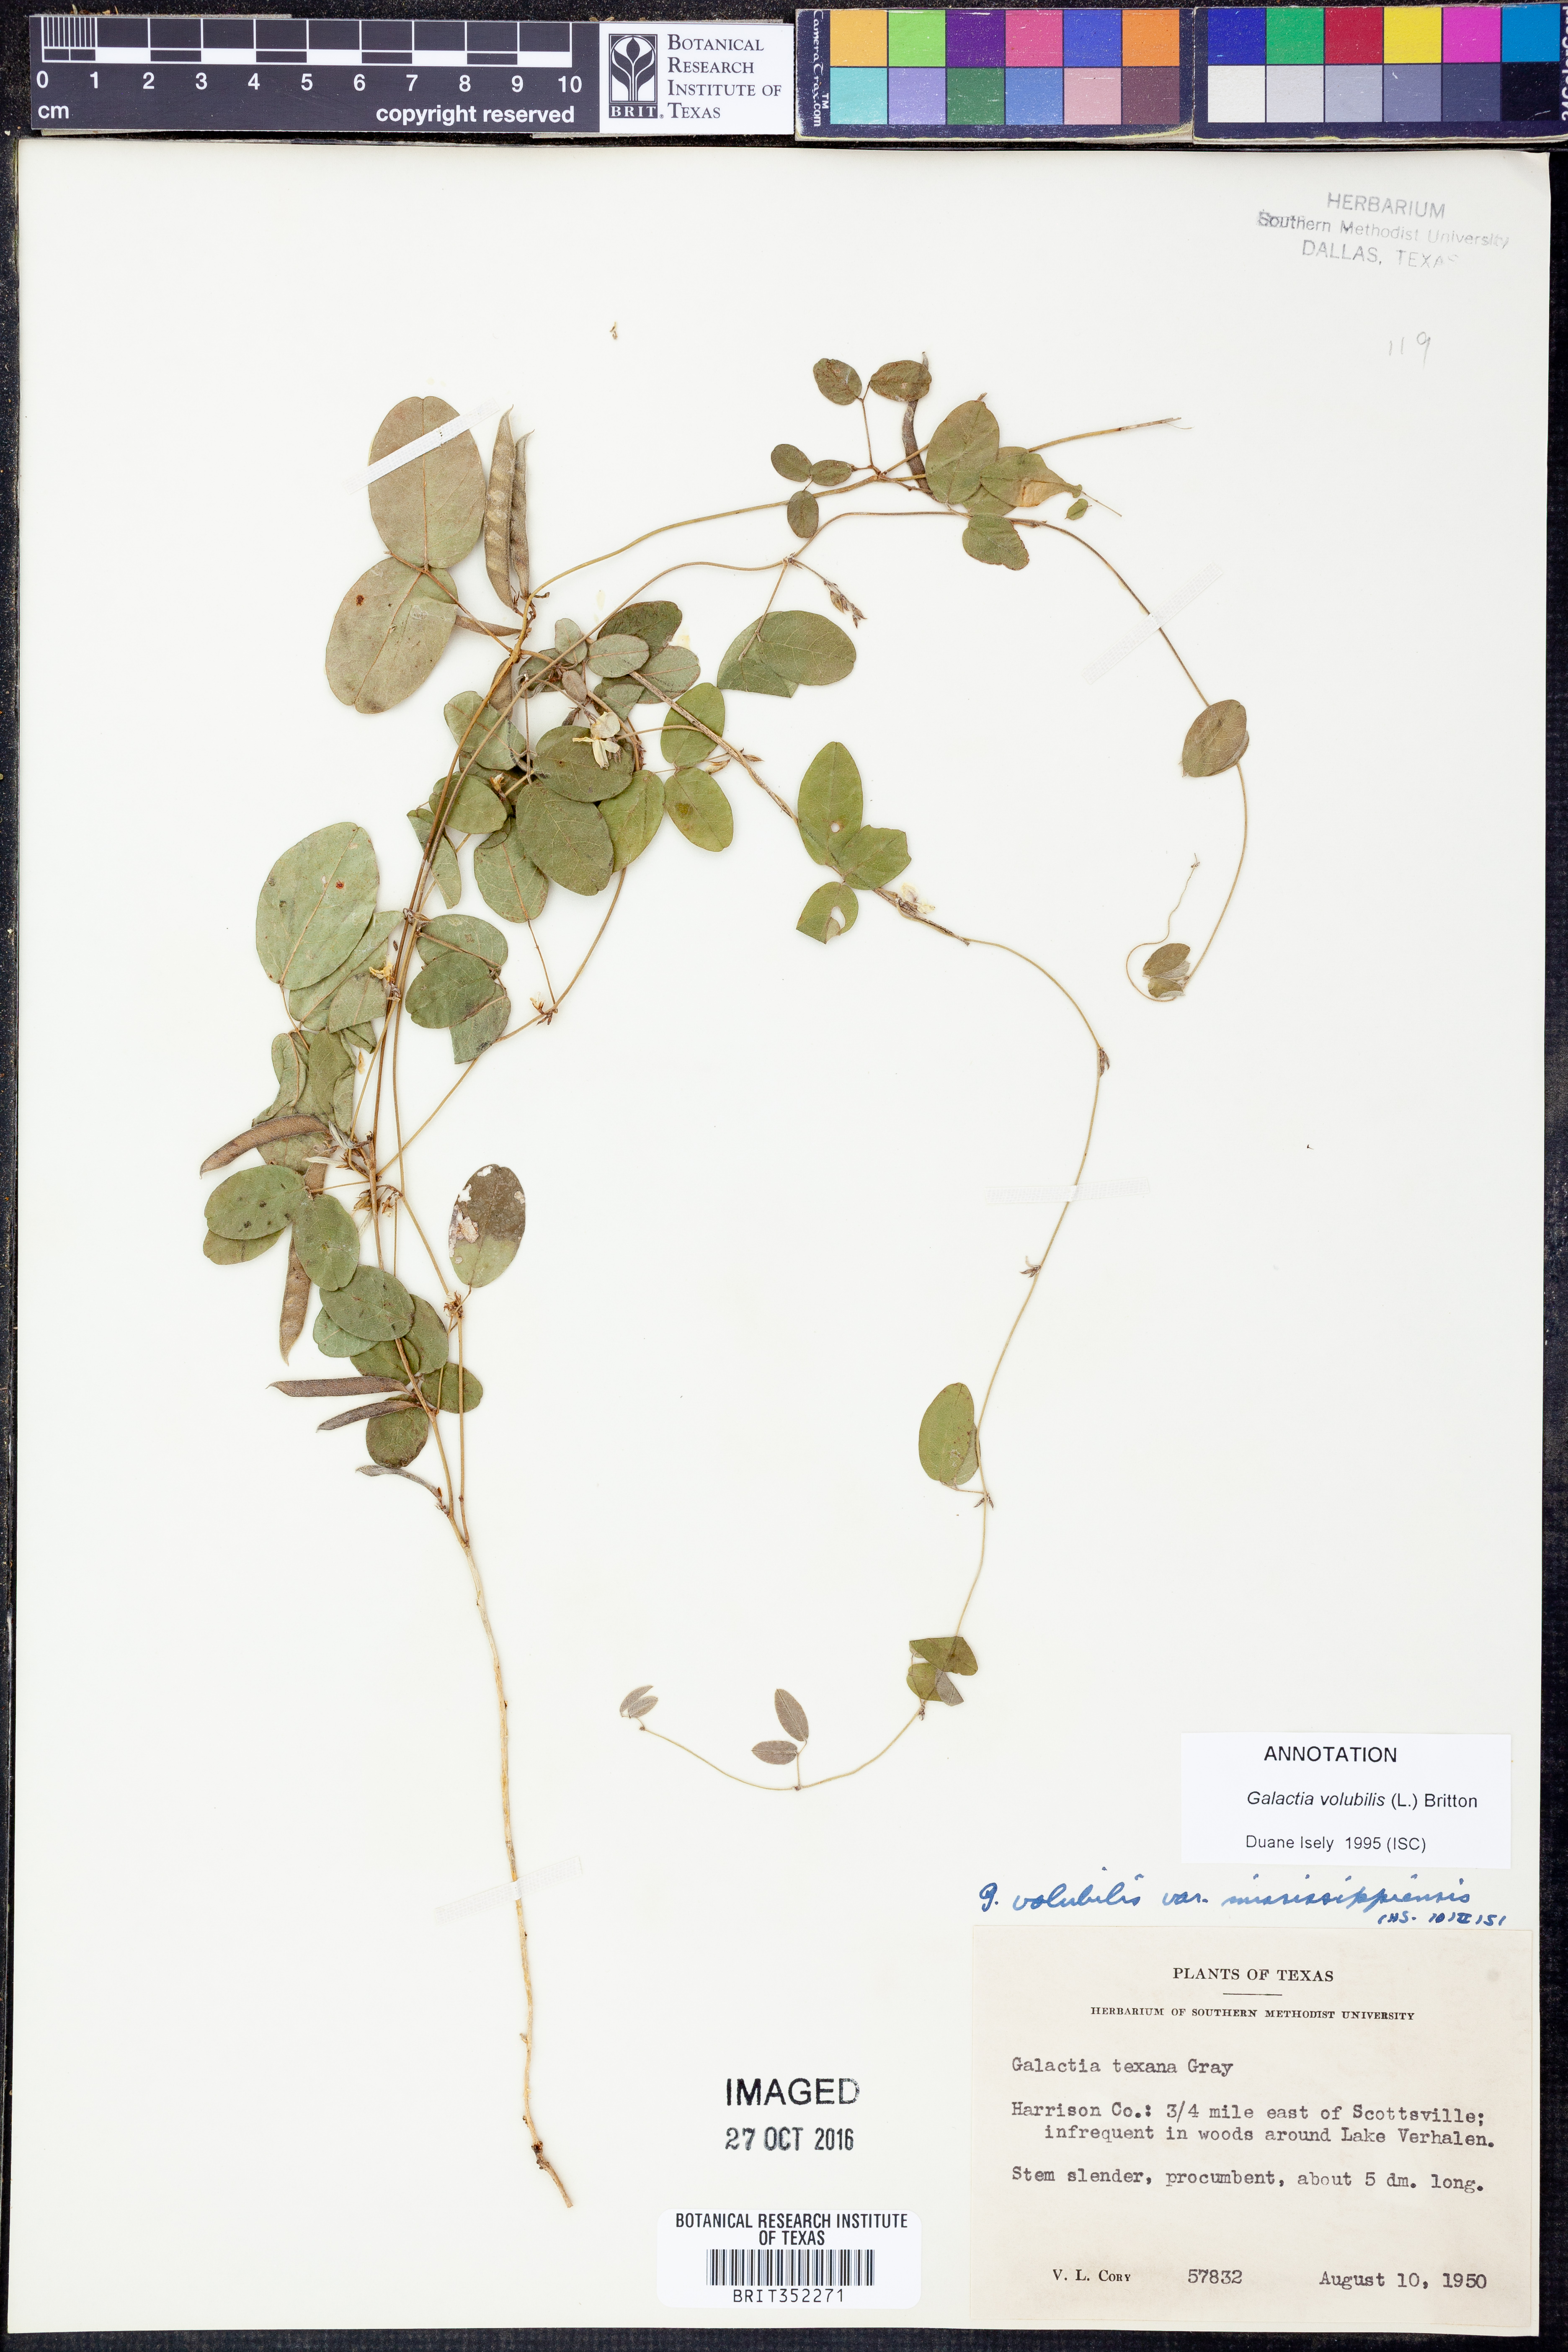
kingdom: Plantae
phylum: Tracheophyta
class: Magnoliopsida
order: Fabales
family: Fabaceae
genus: Galactia
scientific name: Galactia volubilis
